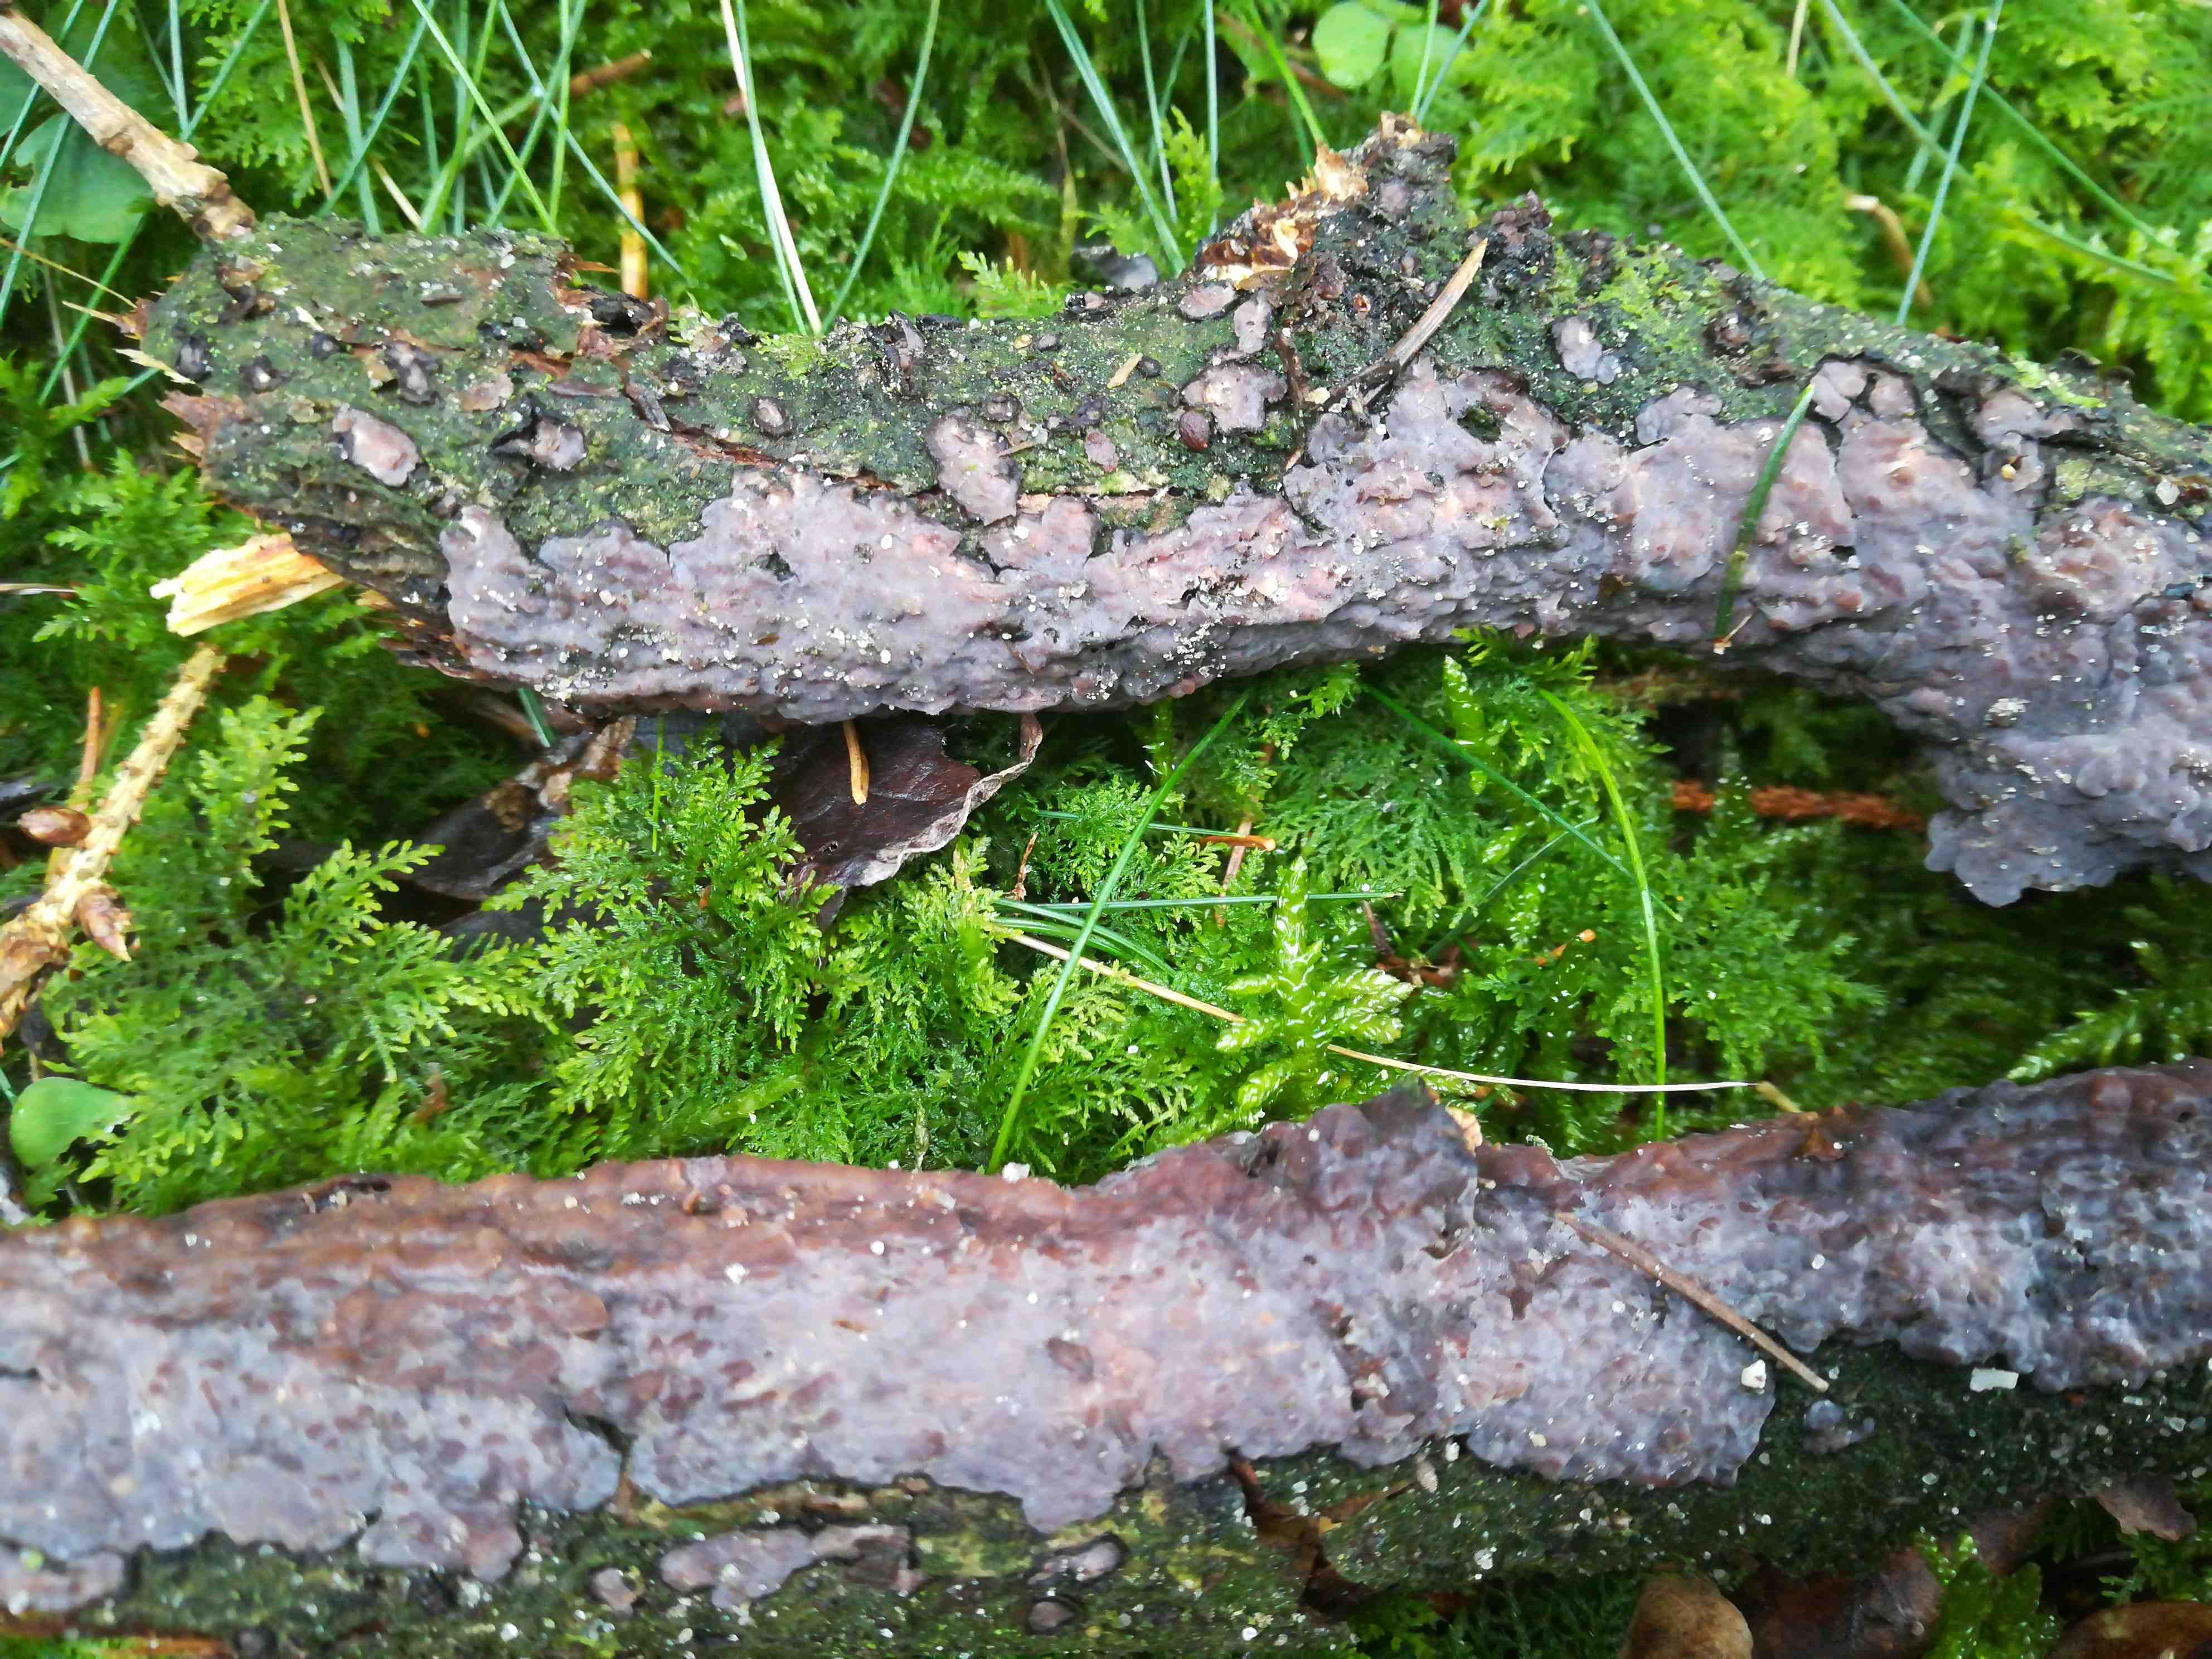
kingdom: Fungi
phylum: Basidiomycota
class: Agaricomycetes
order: Russulales
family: Peniophoraceae
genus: Peniophora
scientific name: Peniophora quercina
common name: ege-voksskind
